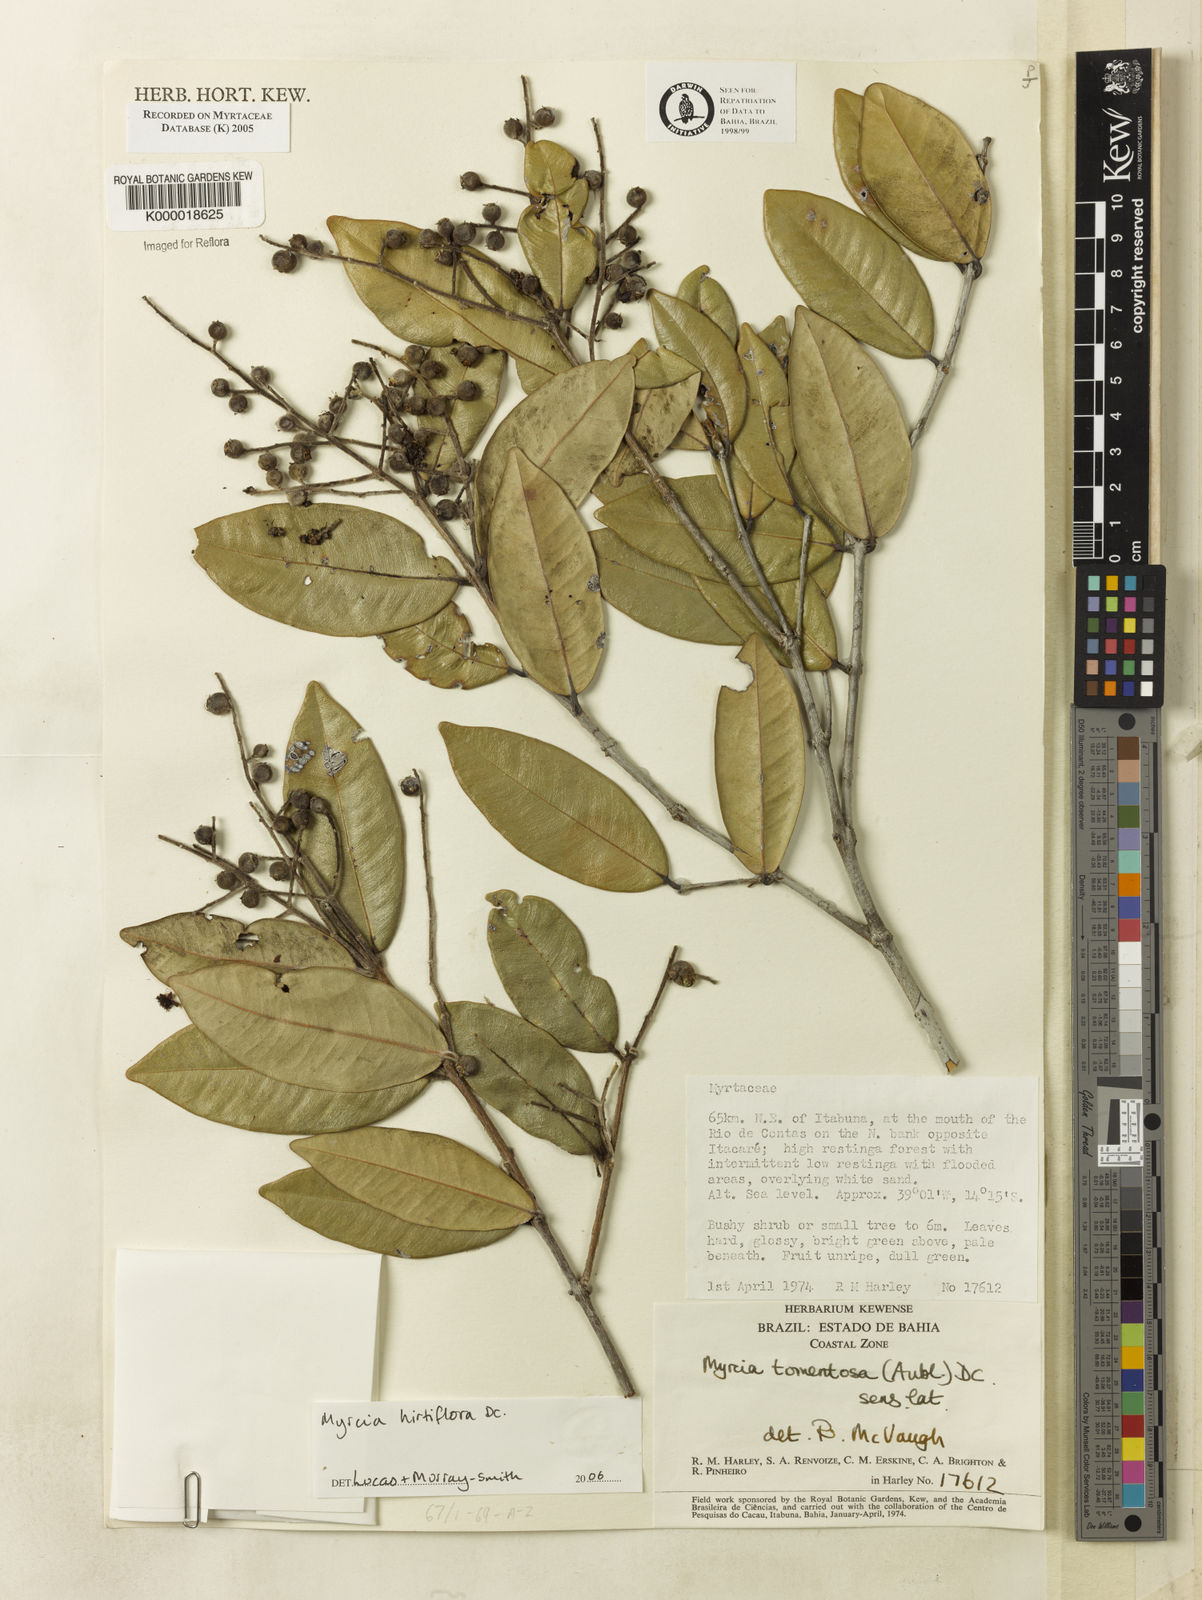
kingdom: Plantae
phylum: Tracheophyta
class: Magnoliopsida
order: Myrtales
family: Myrtaceae
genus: Myrcia
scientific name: Myrcia tomentosa
